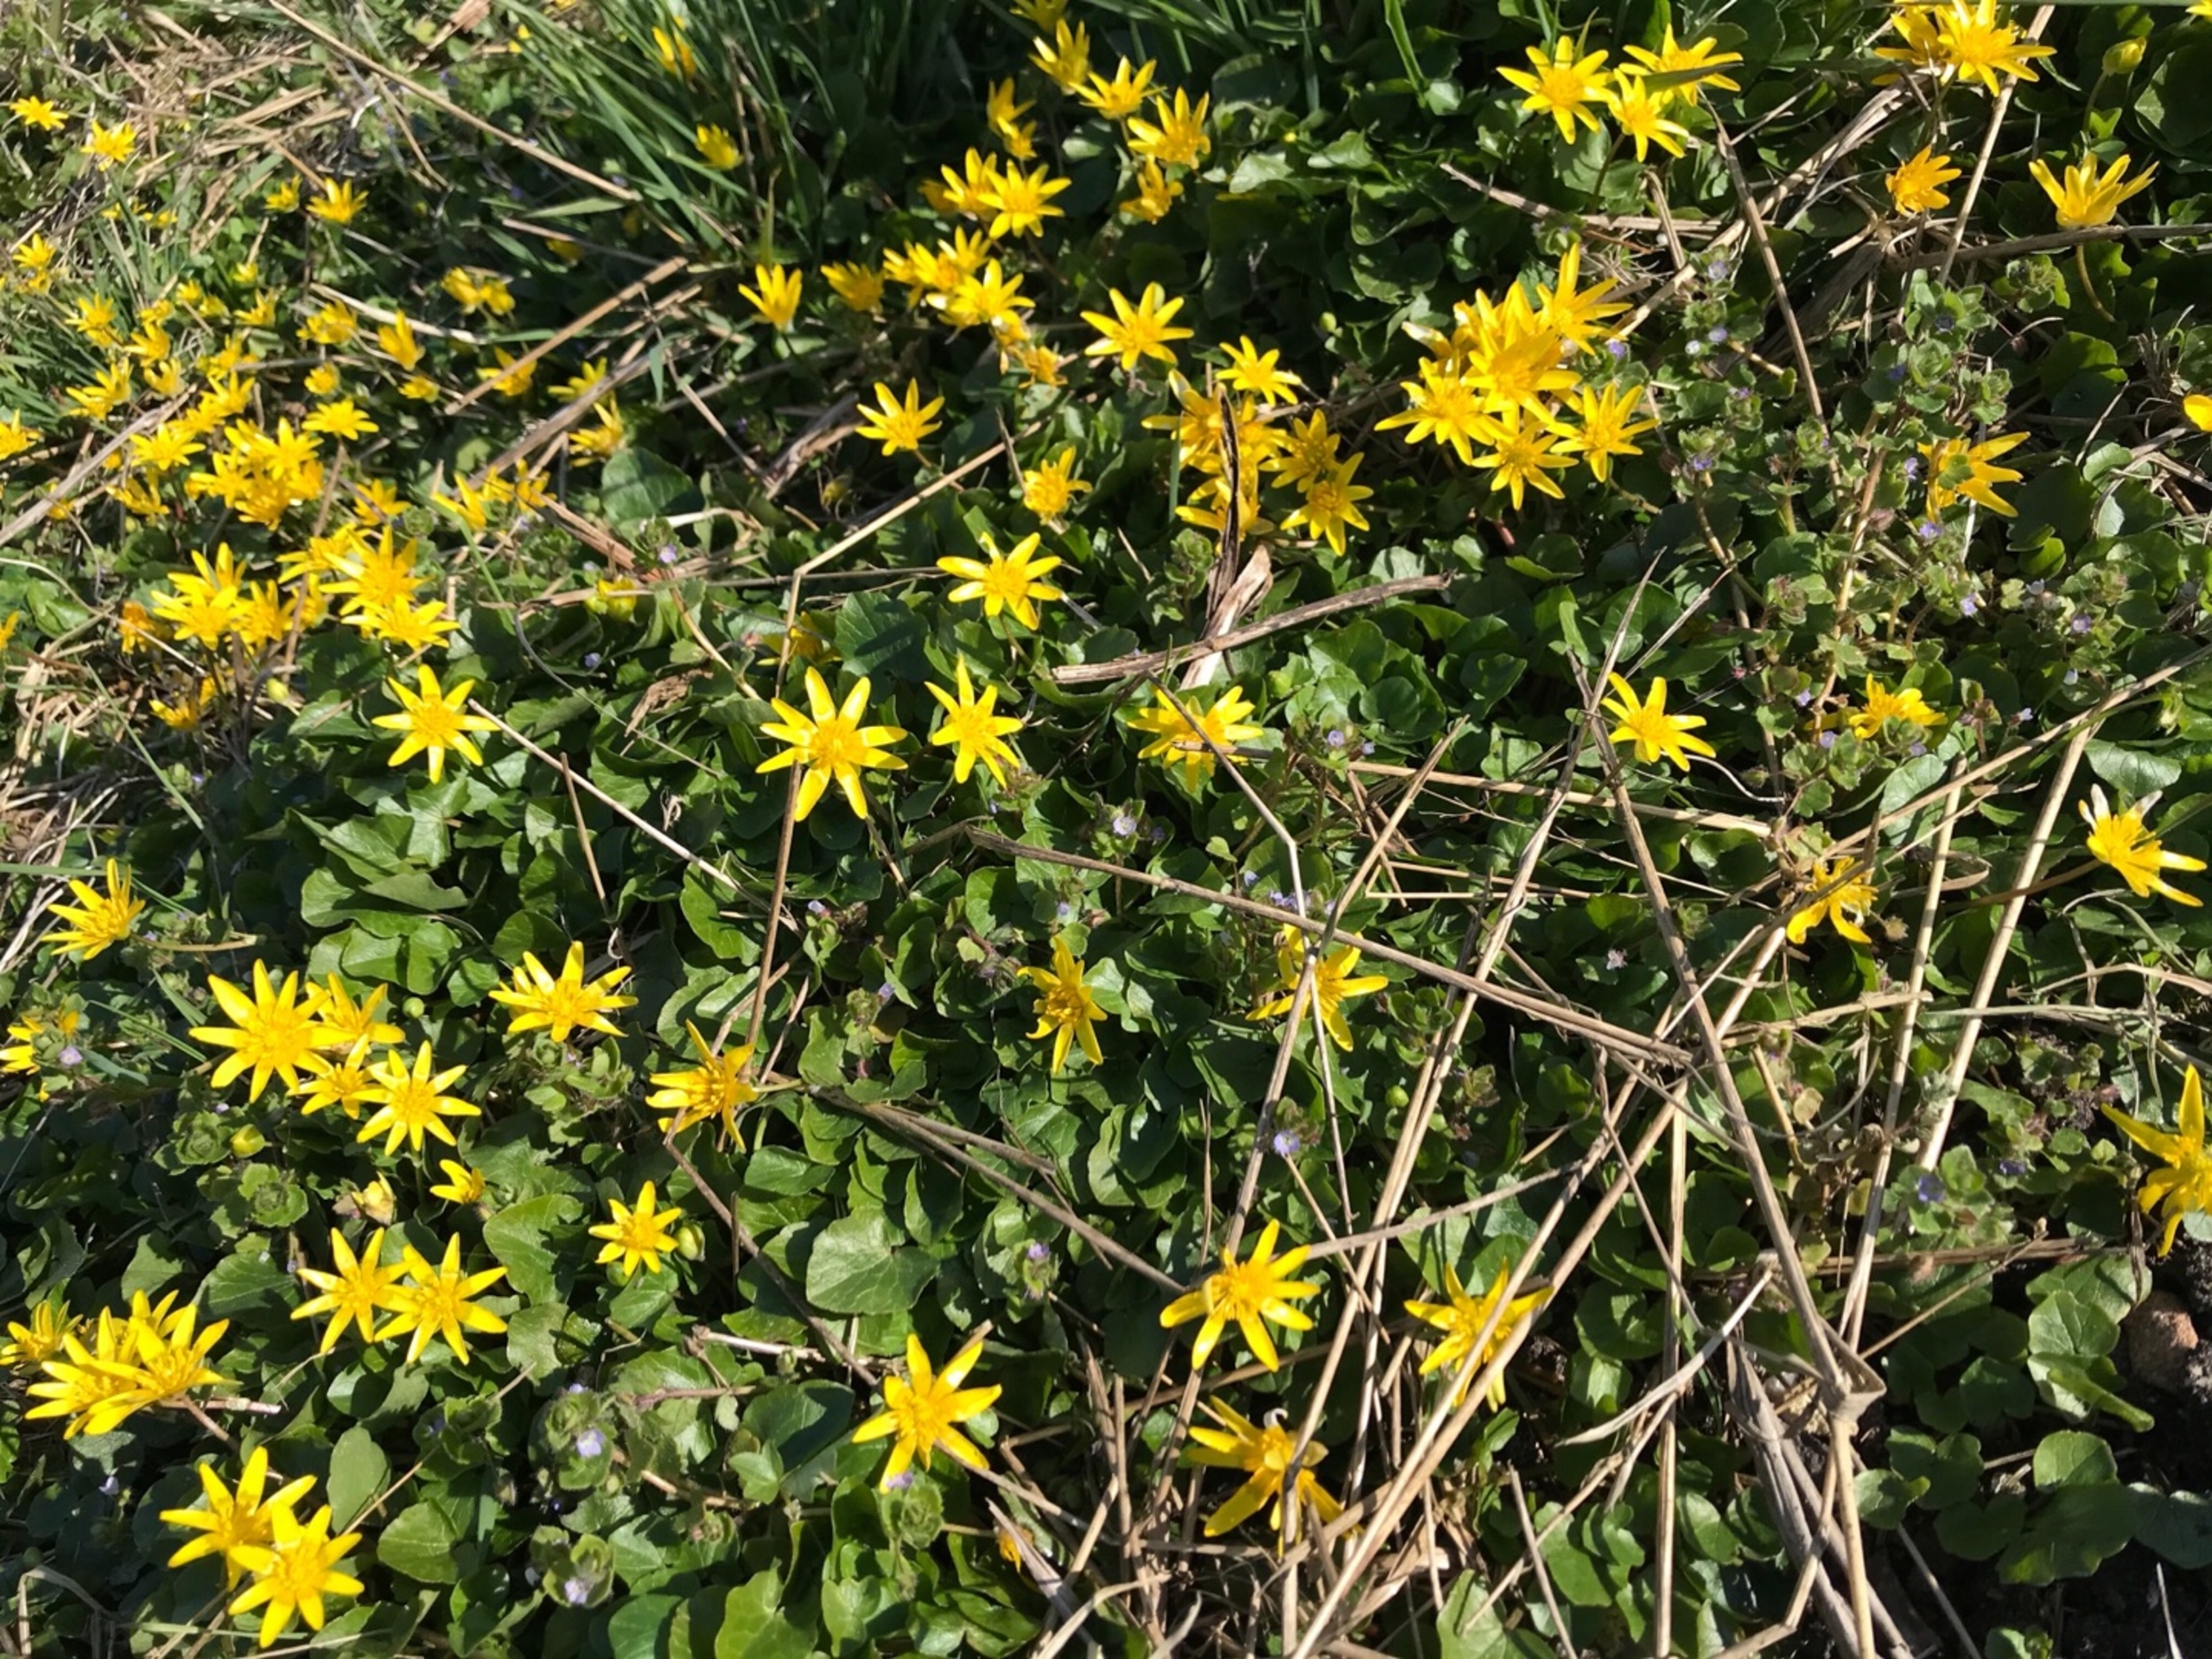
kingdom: Plantae
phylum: Tracheophyta
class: Magnoliopsida
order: Ranunculales
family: Ranunculaceae
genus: Ficaria
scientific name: Ficaria verna
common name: Vorterod
